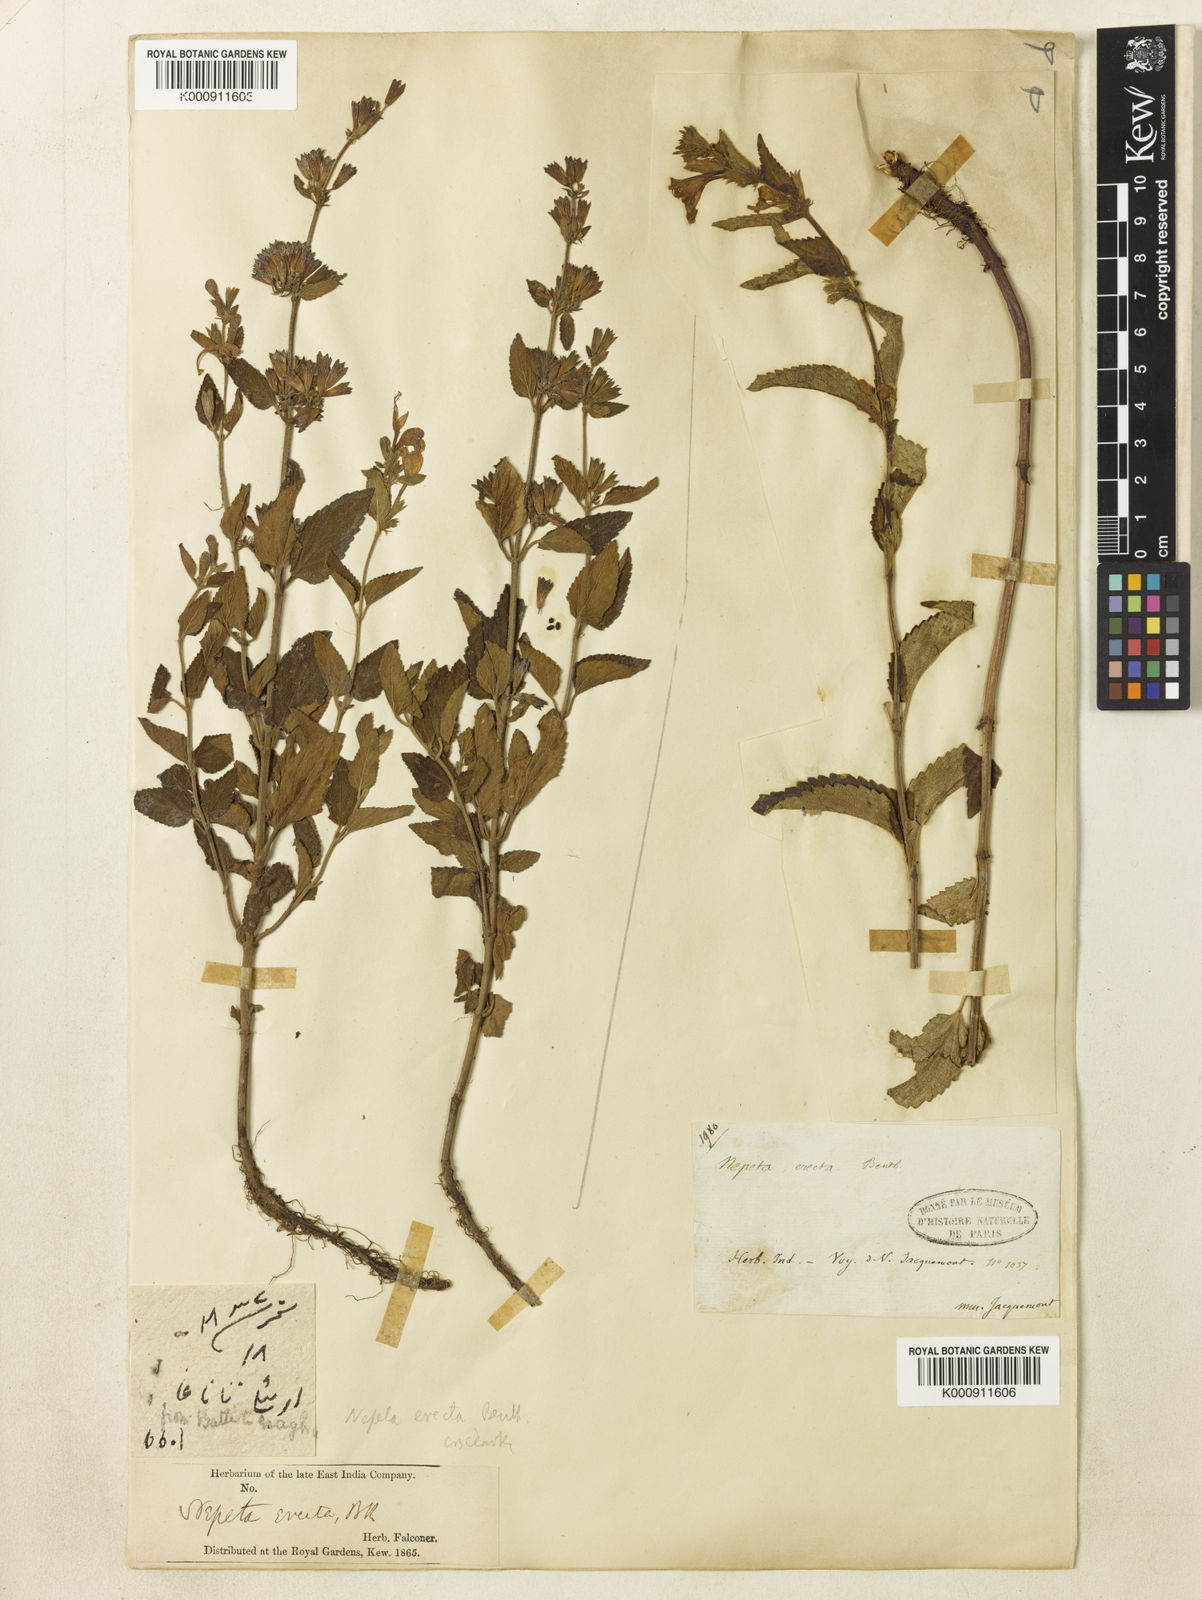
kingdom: Plantae
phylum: Tracheophyta
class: Magnoliopsida
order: Lamiales
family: Lamiaceae
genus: Nepeta
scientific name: Nepeta erecta
